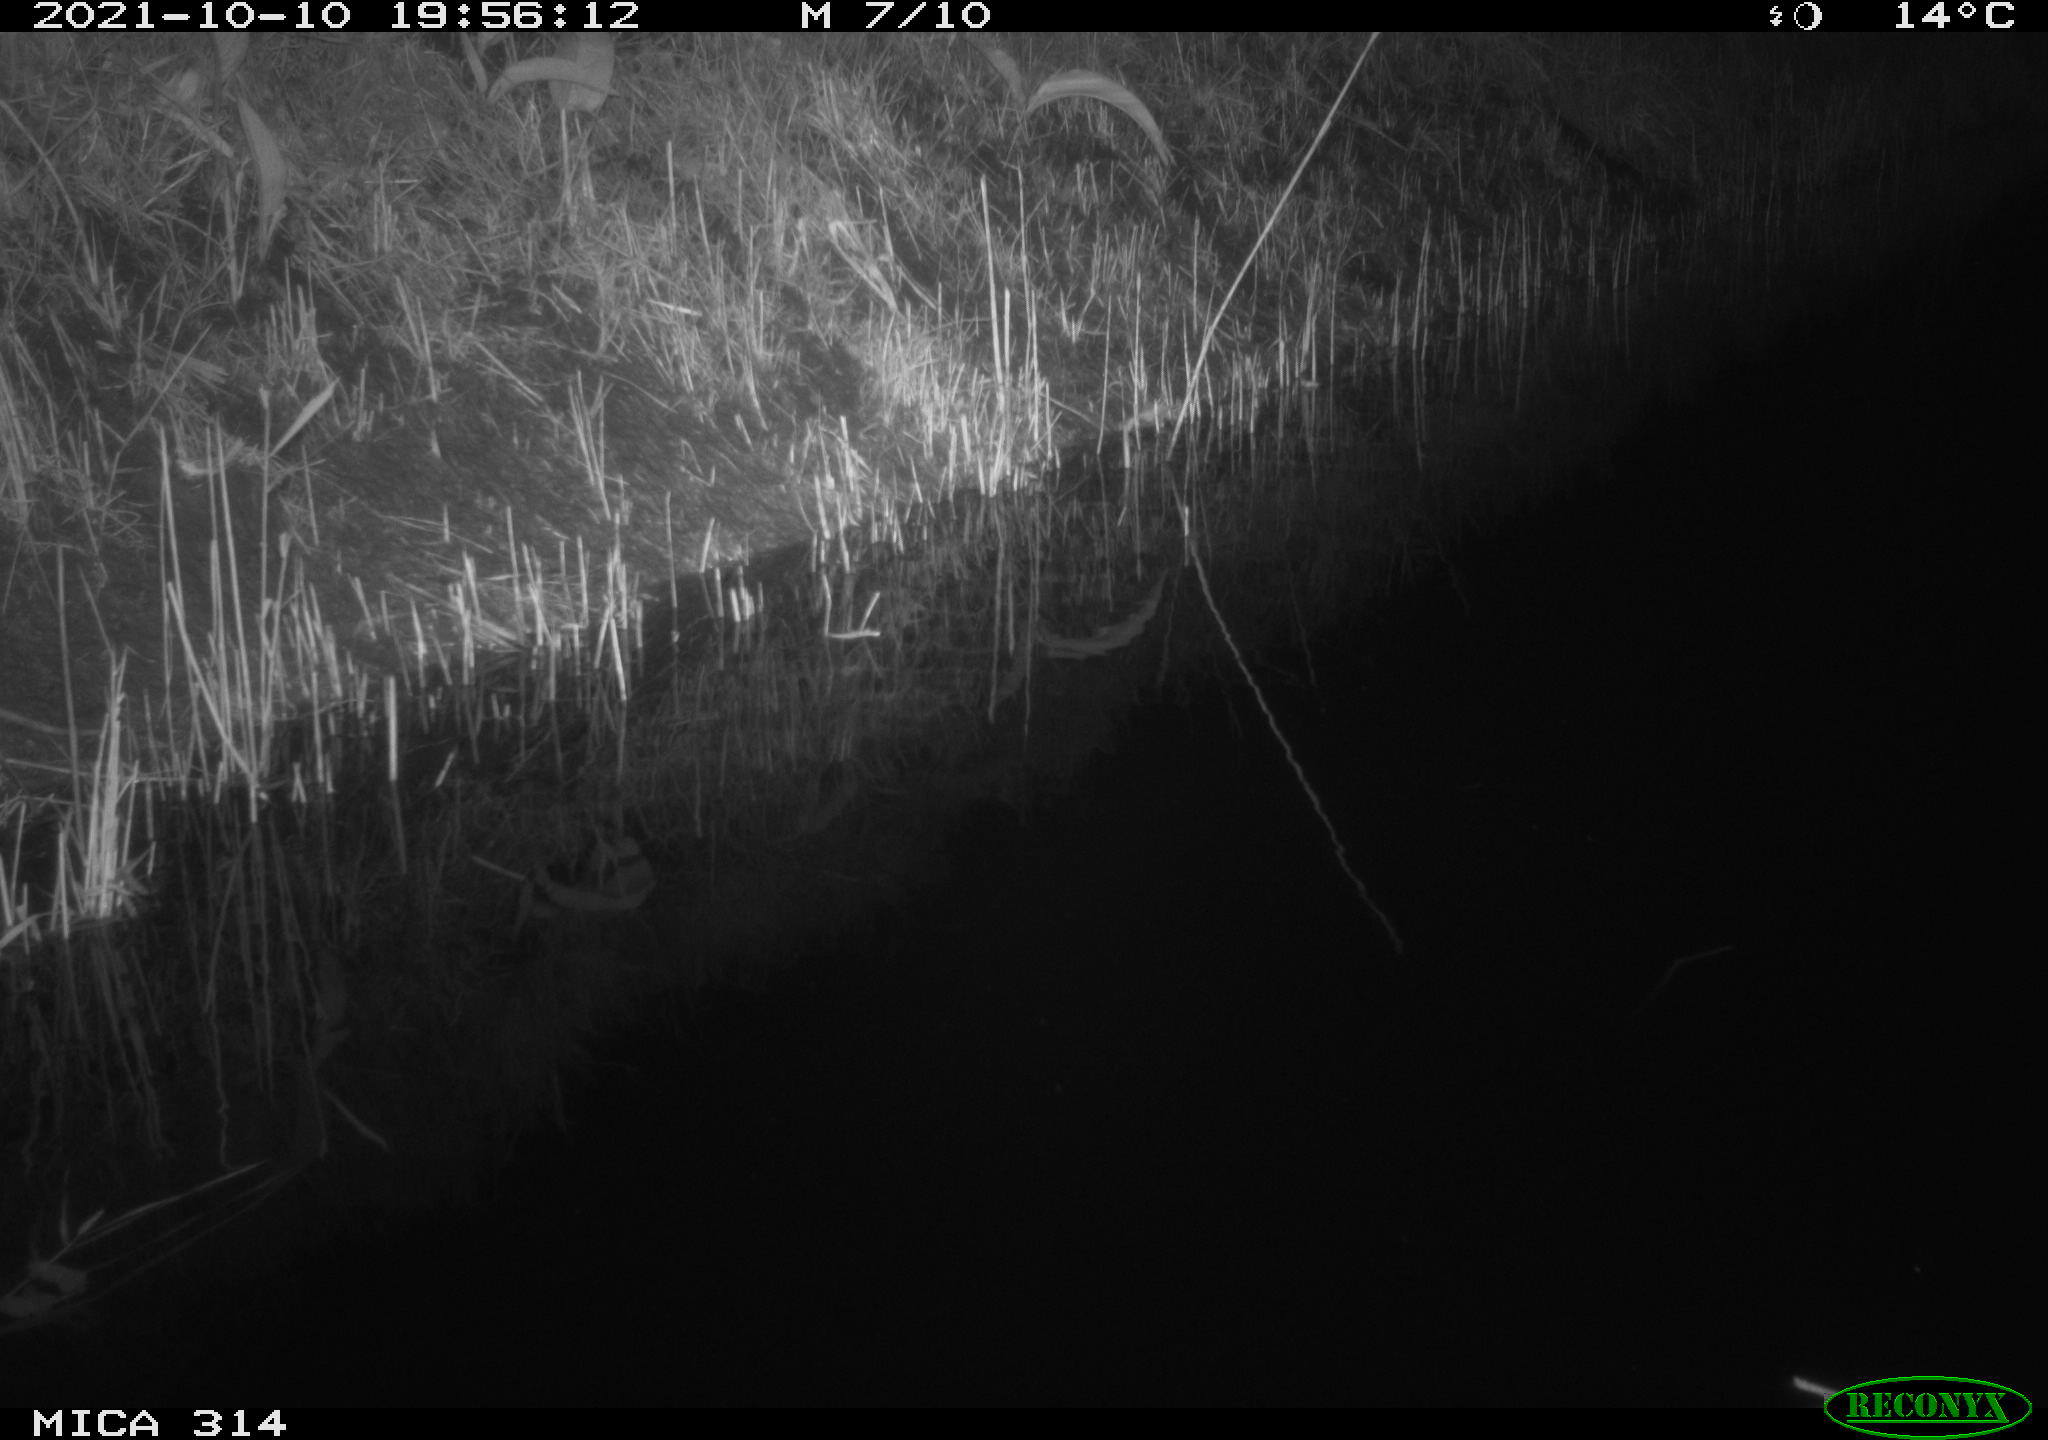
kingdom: Animalia
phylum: Chordata
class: Mammalia
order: Rodentia
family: Muridae
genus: Rattus
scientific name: Rattus norvegicus
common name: Brown rat
